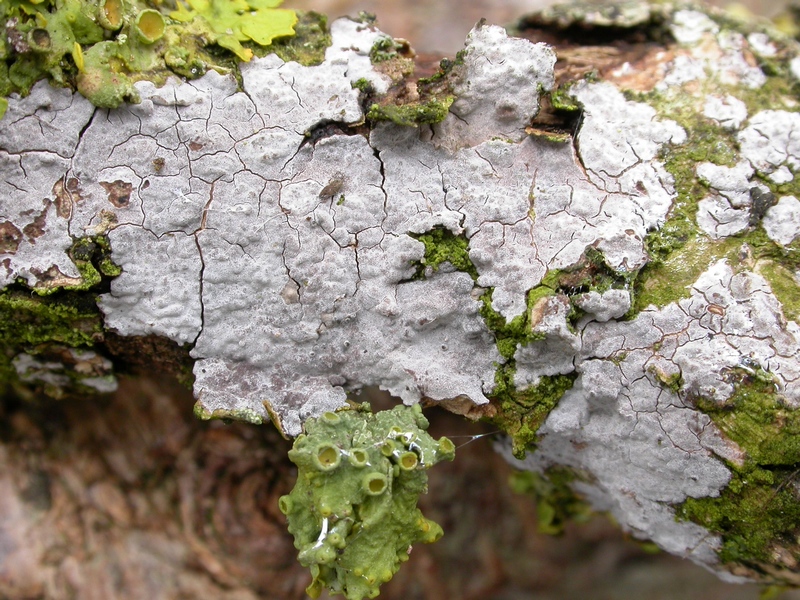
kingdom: Fungi
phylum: Basidiomycota
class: Agaricomycetes
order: Russulales
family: Peniophoraceae
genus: Peniophora
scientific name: Peniophora lycii
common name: grynet voksskind
